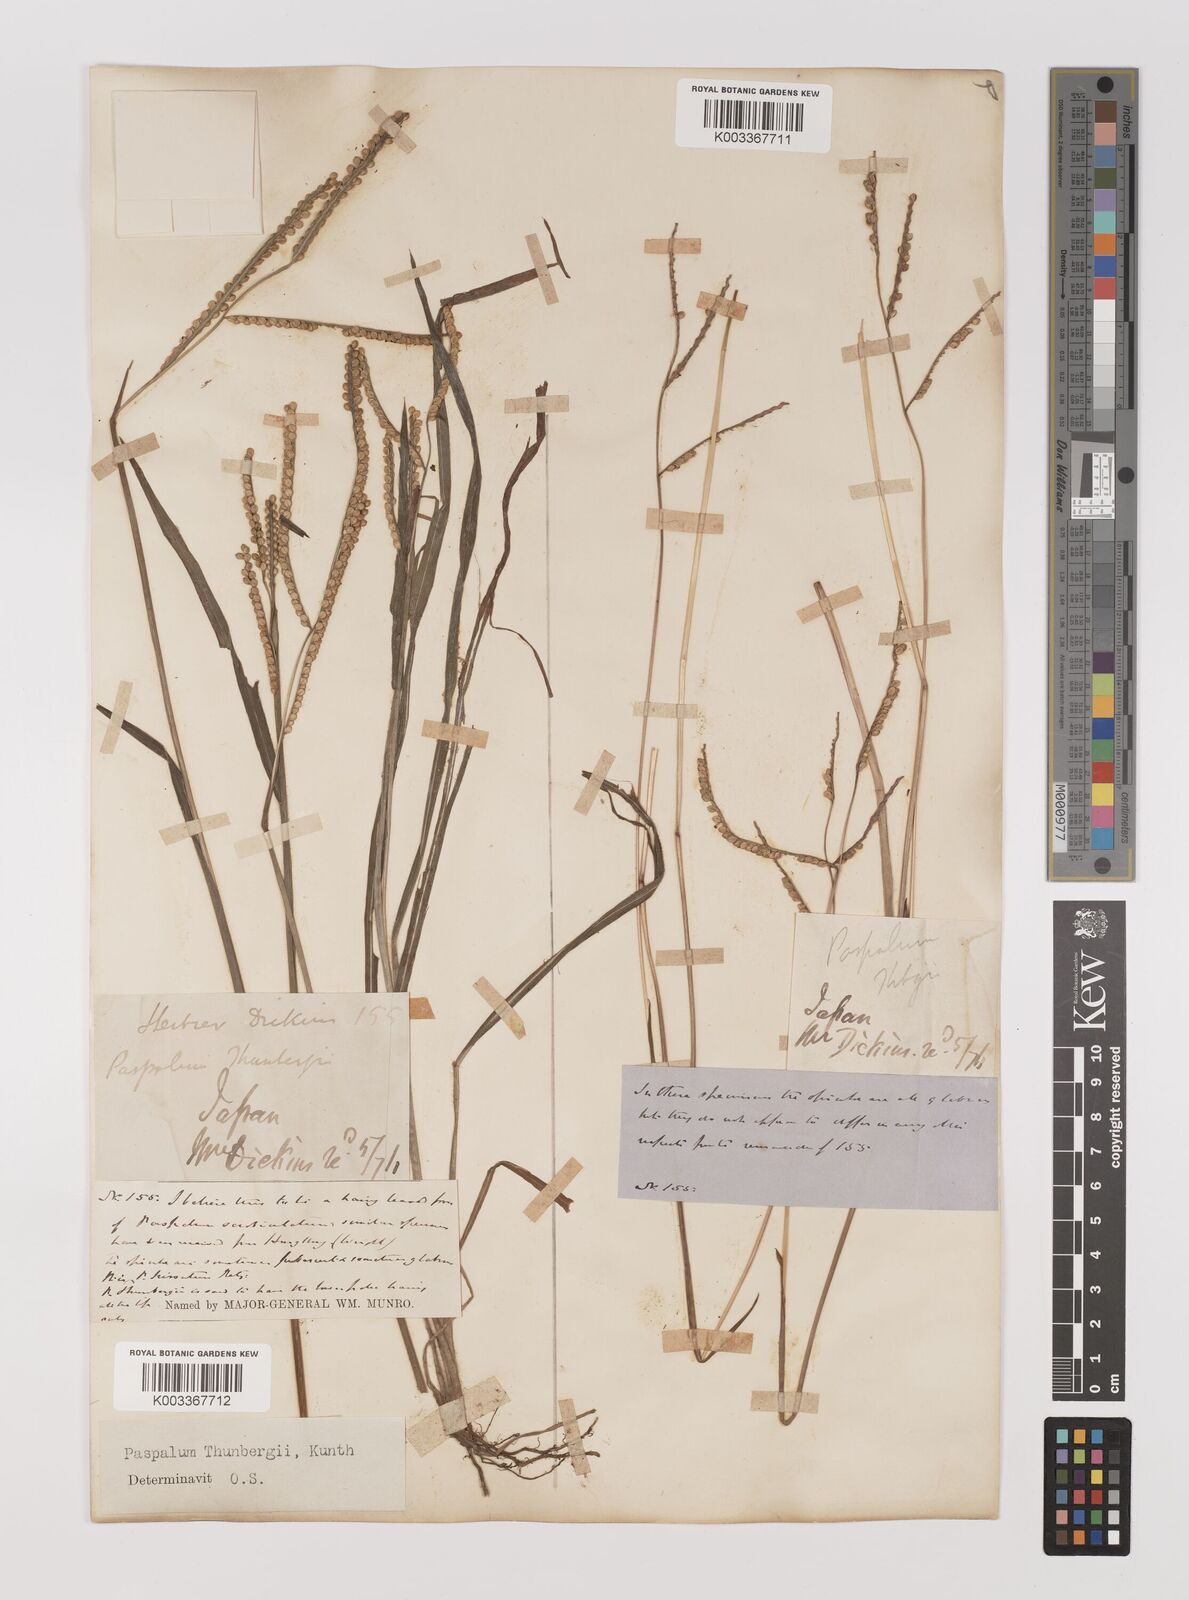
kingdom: Plantae
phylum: Tracheophyta
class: Liliopsida
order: Poales
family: Poaceae
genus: Panicum
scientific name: Panicum
